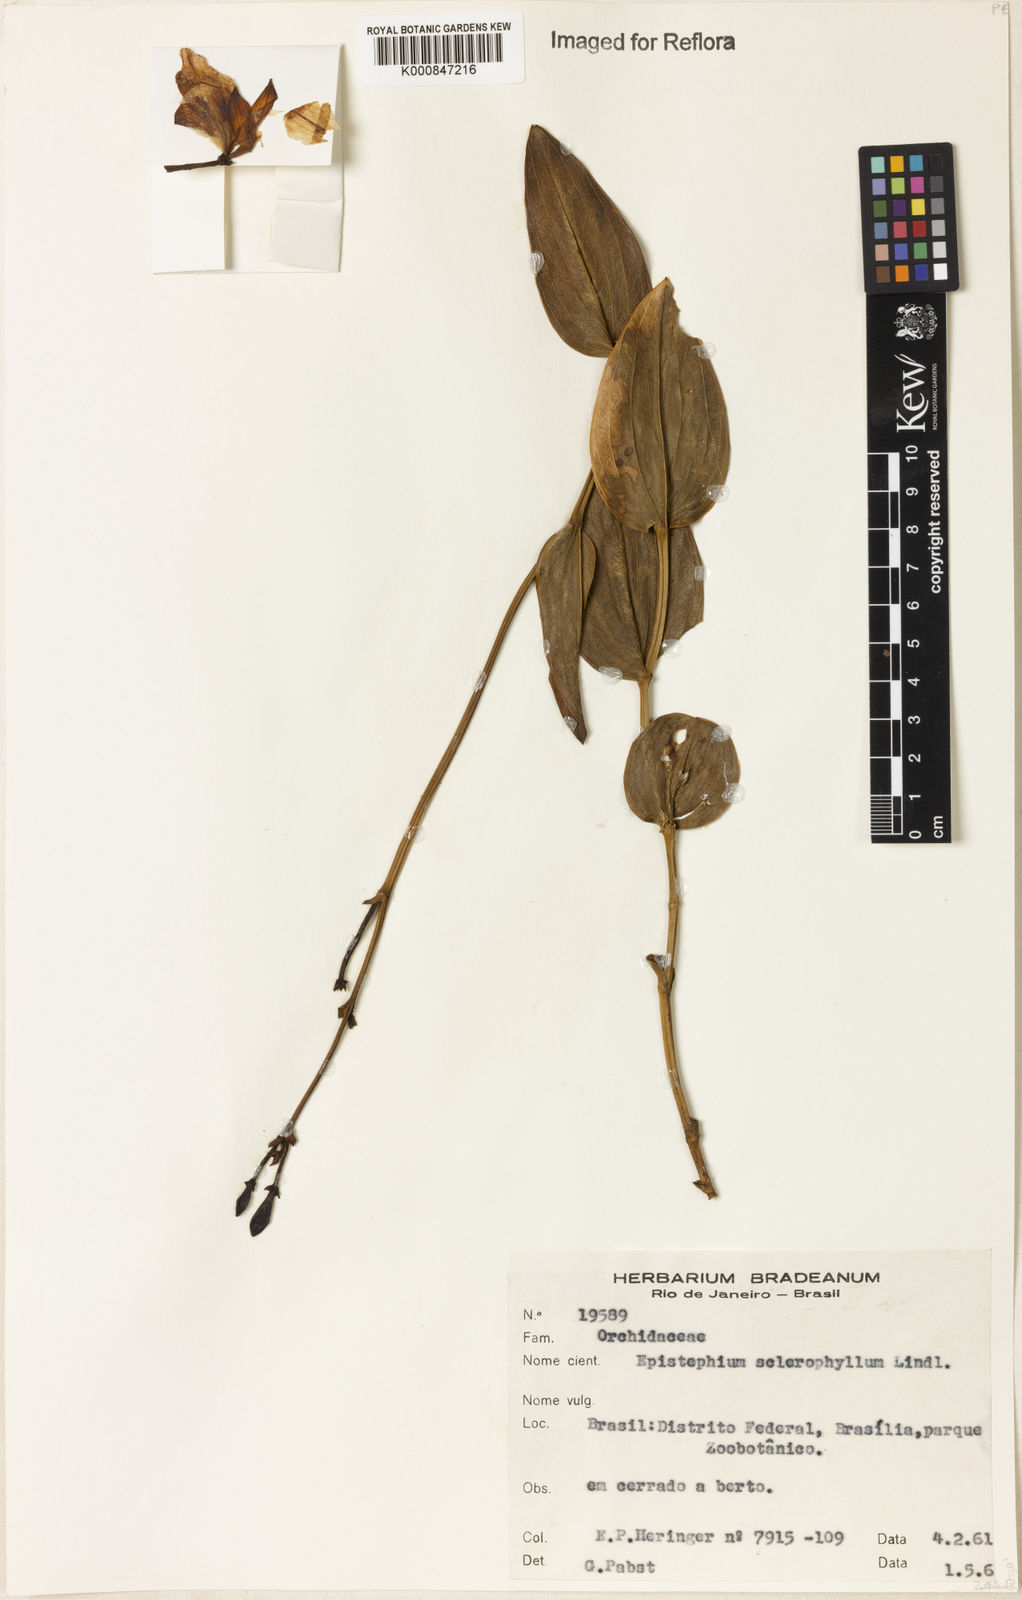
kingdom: Plantae
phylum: Tracheophyta
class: Liliopsida
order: Asparagales
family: Orchidaceae
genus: Epistephium
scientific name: Epistephium sclerophyllum
